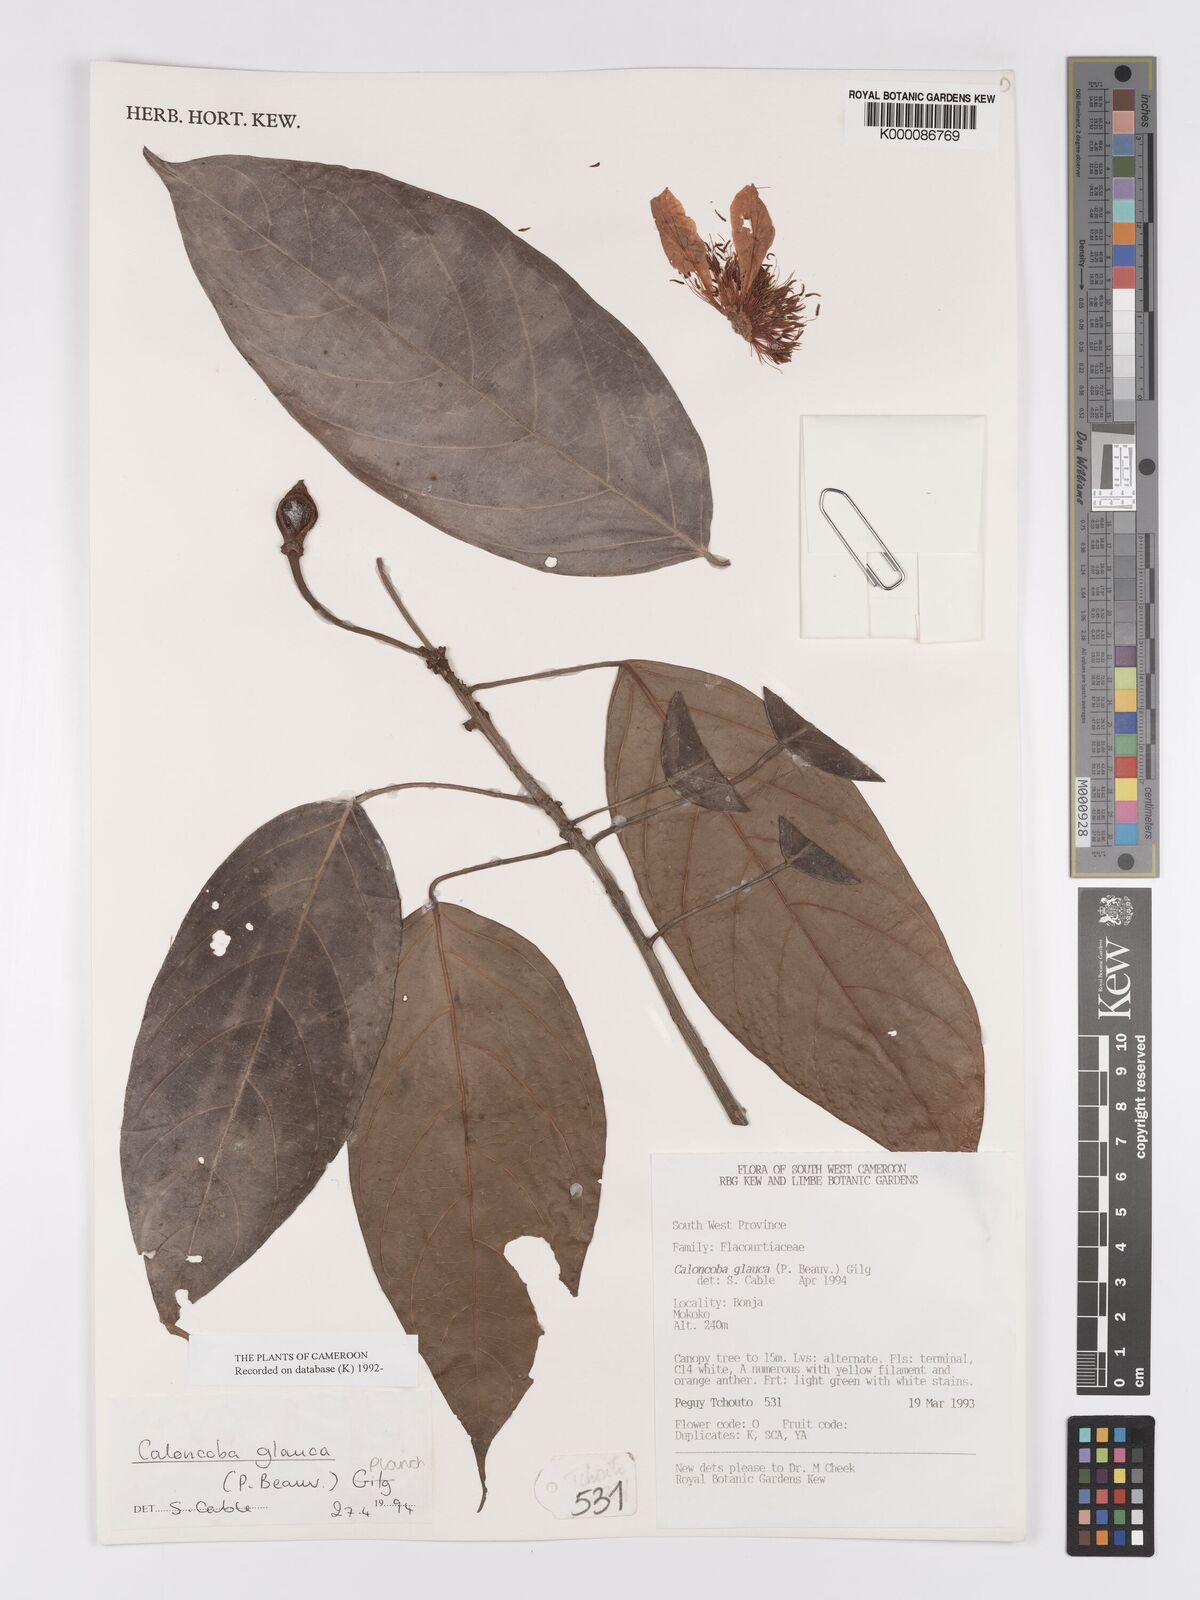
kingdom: Plantae
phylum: Tracheophyta
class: Magnoliopsida
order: Malpighiales
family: Achariaceae
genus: Caloncoba
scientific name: Caloncoba glauca
